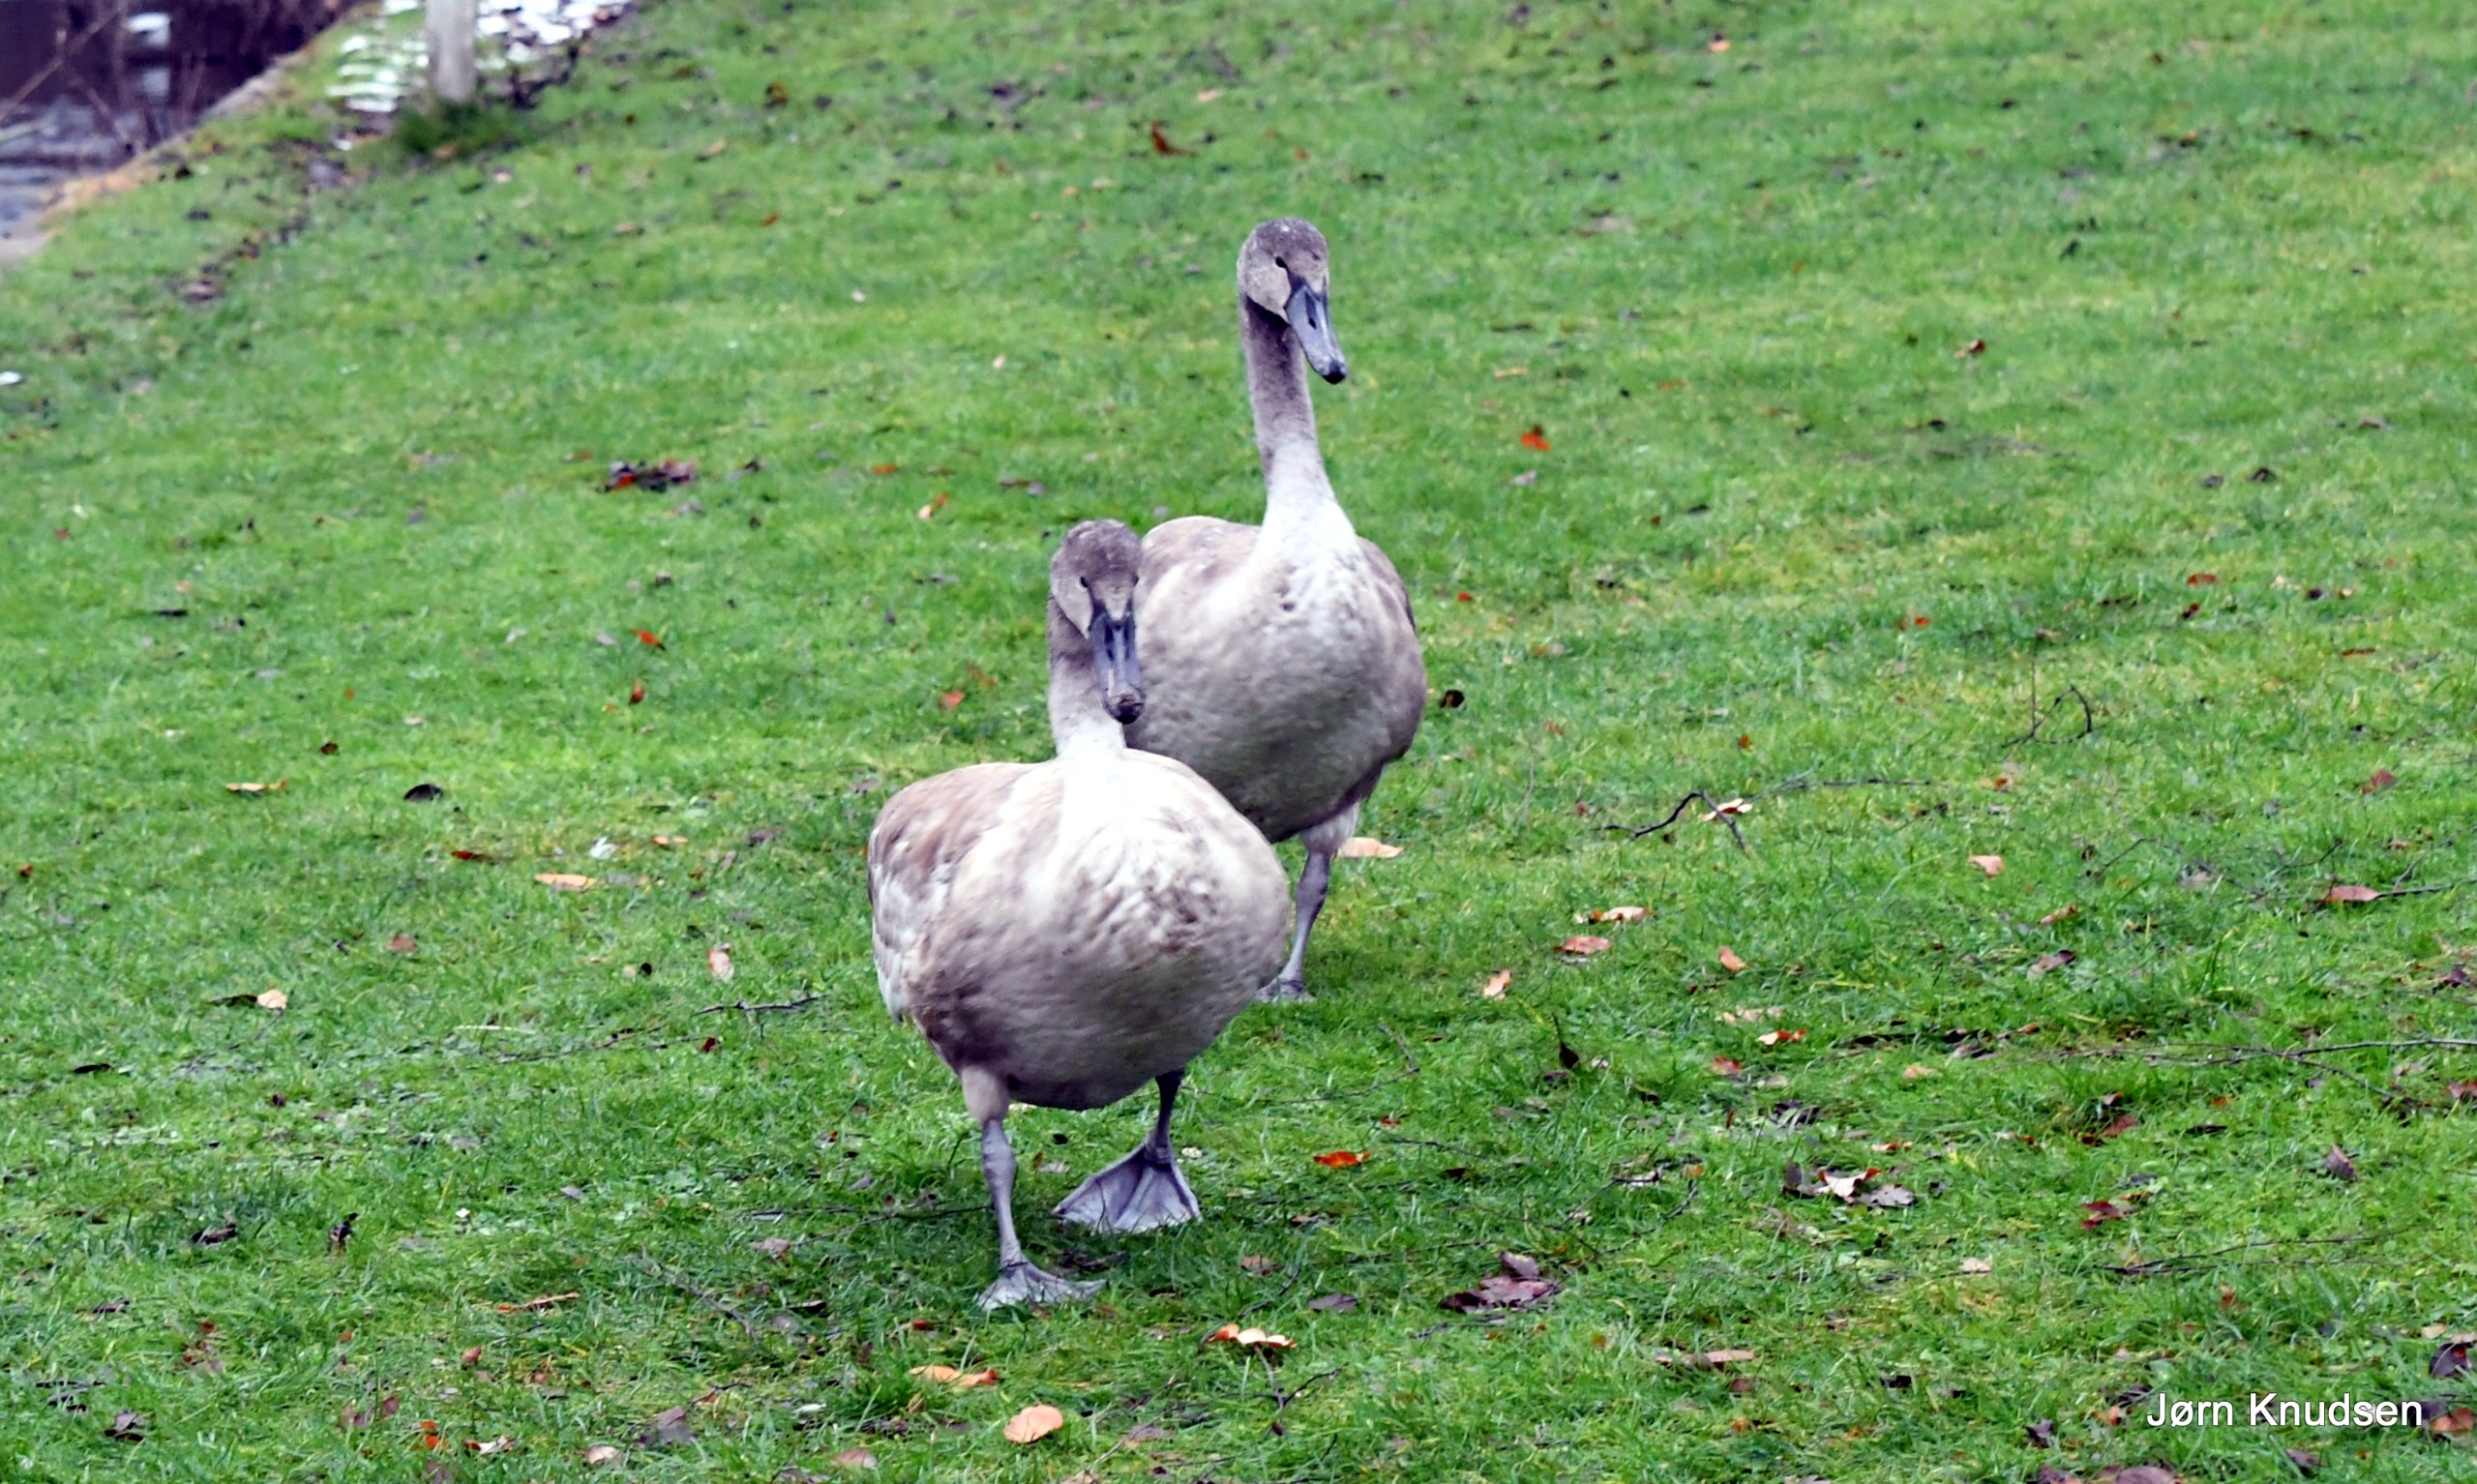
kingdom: Animalia
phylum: Chordata
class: Aves
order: Anseriformes
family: Anatidae
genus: Cygnus
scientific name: Cygnus olor
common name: Knopsvane
